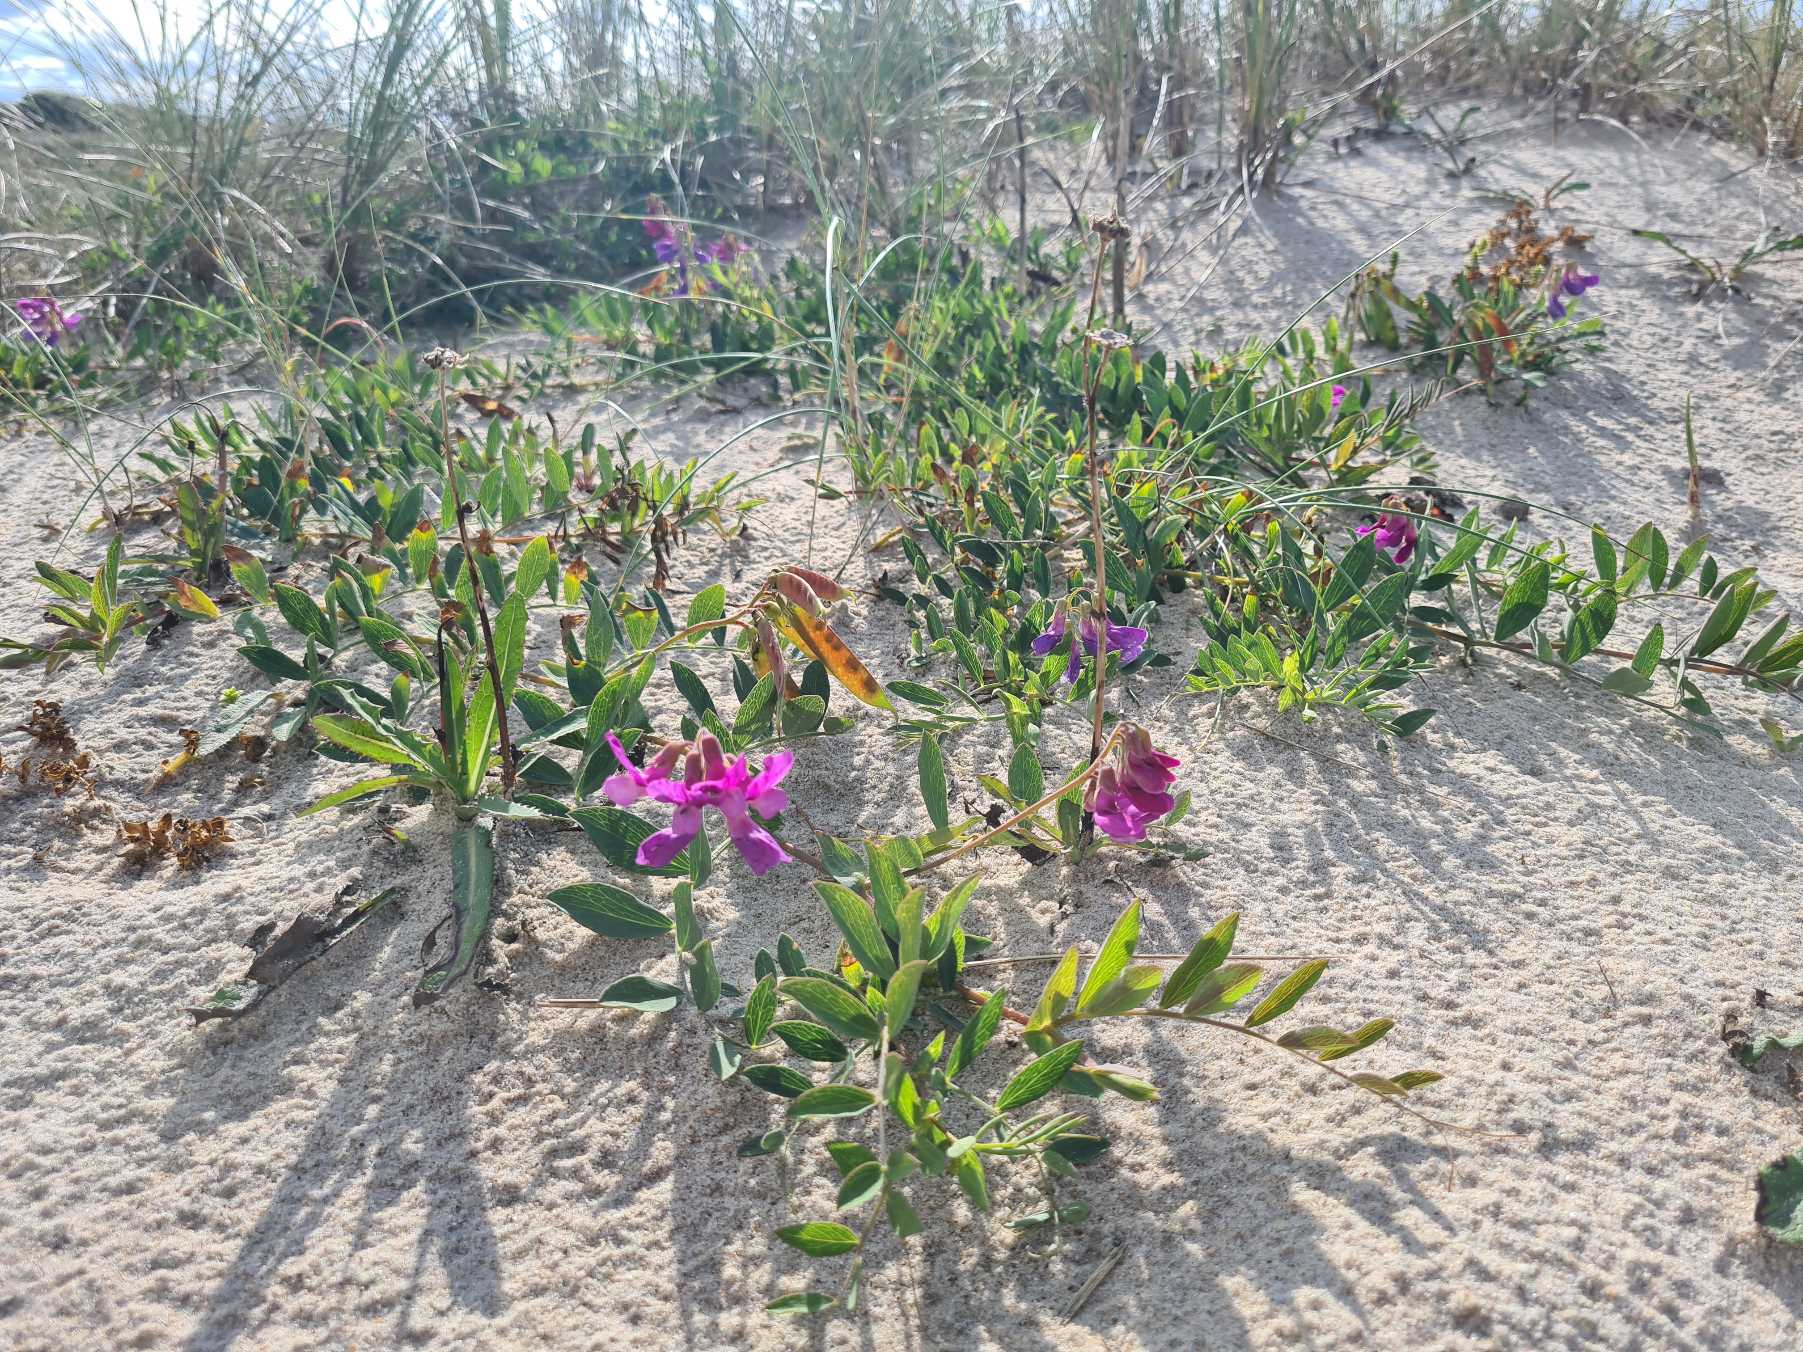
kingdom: Plantae
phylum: Tracheophyta
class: Magnoliopsida
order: Fabales
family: Fabaceae
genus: Lathyrus
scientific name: Lathyrus japonicus
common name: Strand-fladbælg
